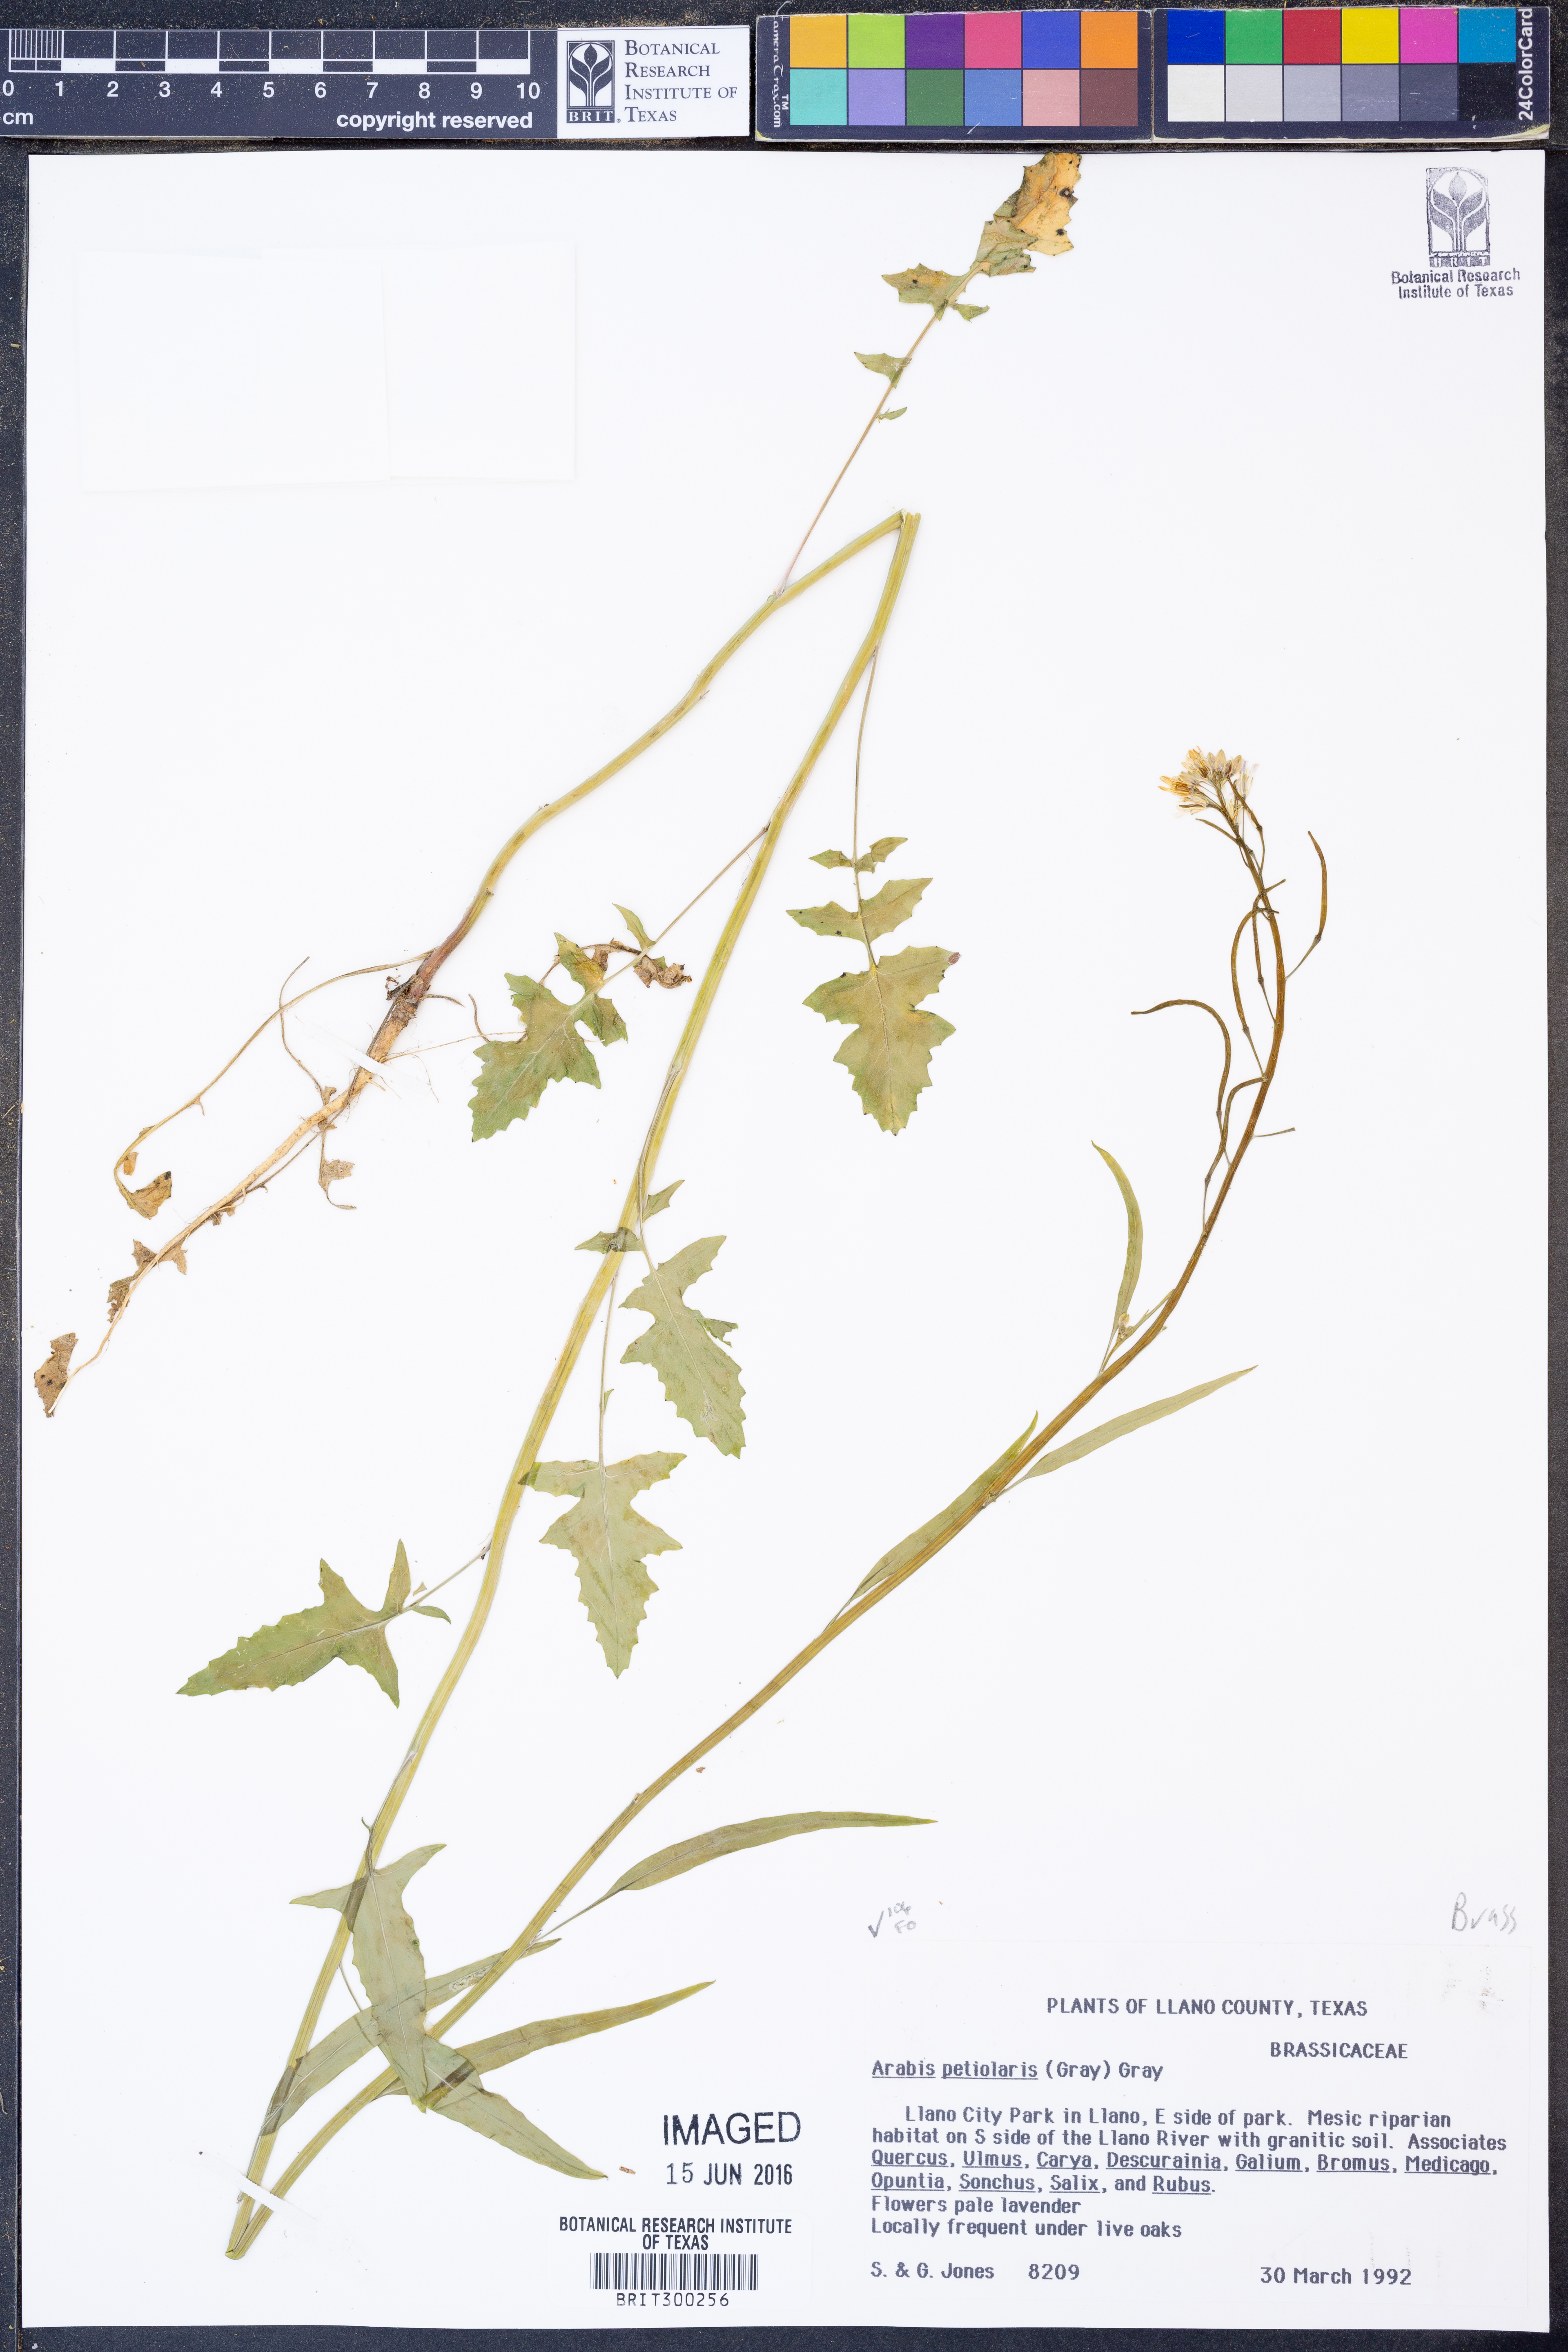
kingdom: Plantae
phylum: Tracheophyta
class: Magnoliopsida
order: Brassicales
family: Brassicaceae
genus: Streptanthus
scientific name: Streptanthus petiolaris
